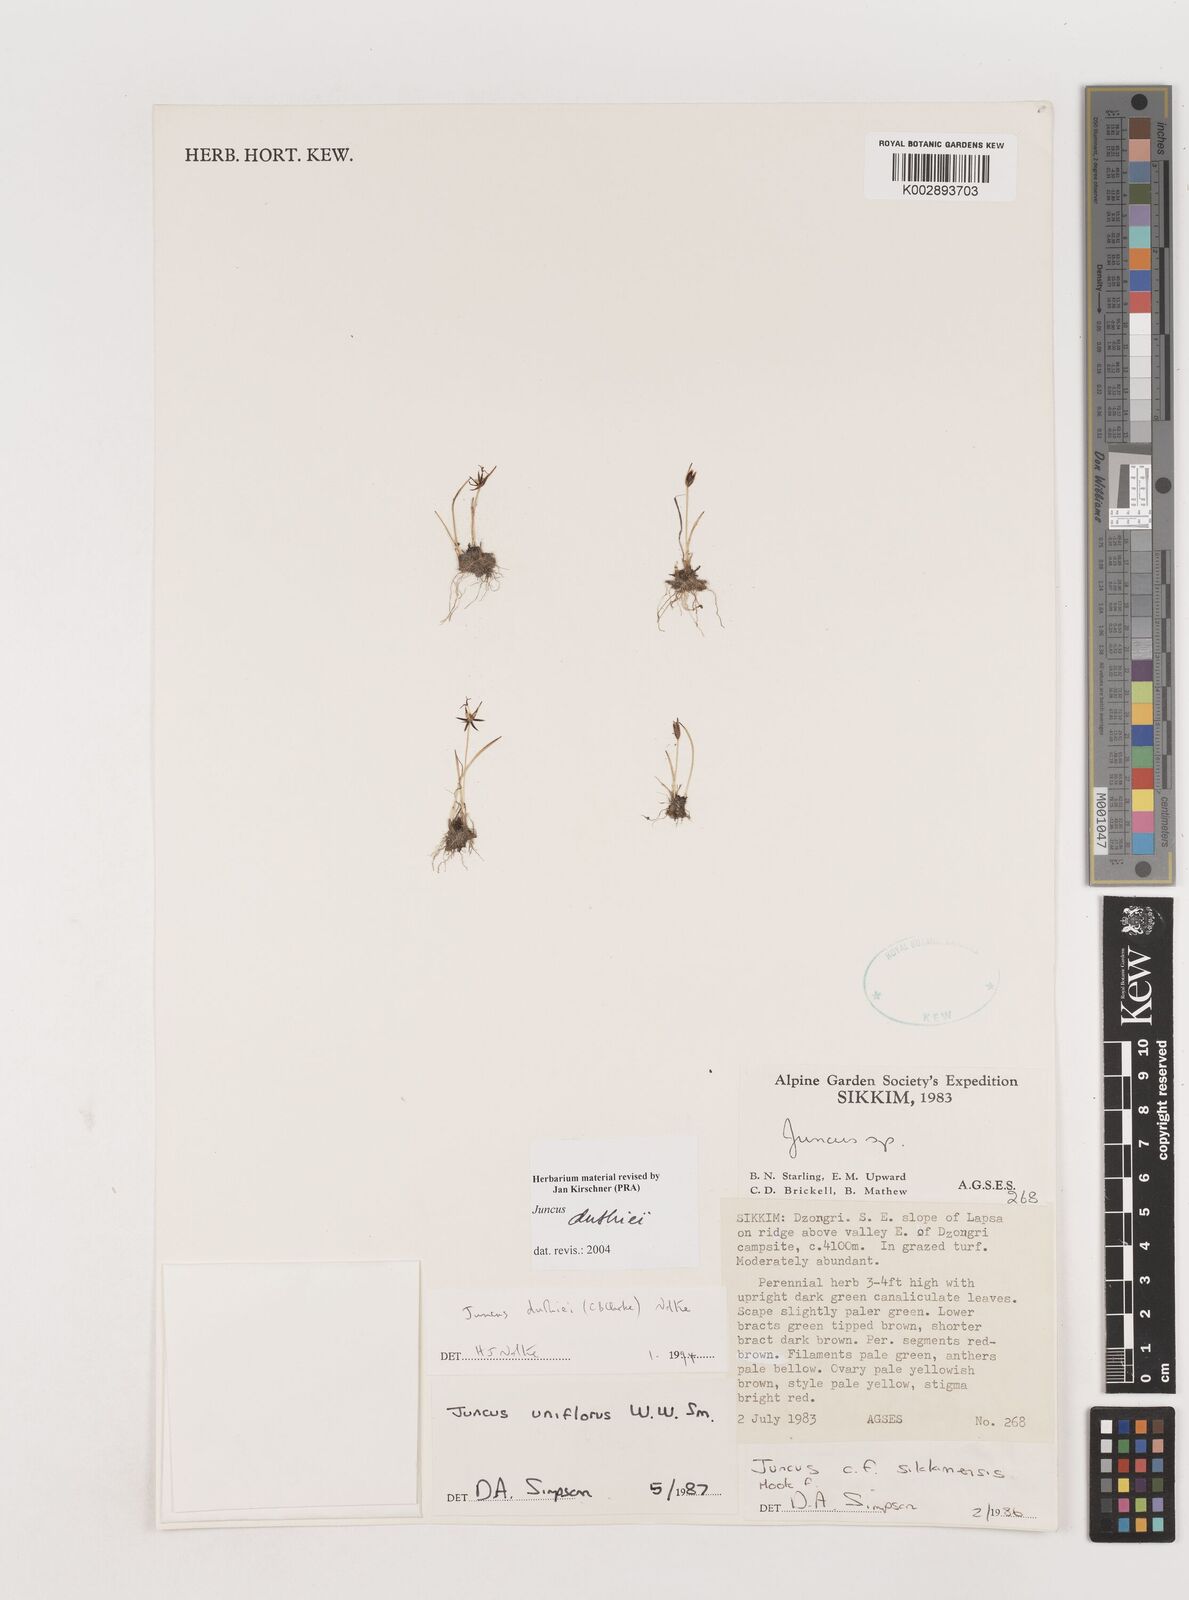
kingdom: Plantae
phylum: Tracheophyta
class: Liliopsida
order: Poales
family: Juncaceae
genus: Juncus
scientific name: Juncus duthiei
